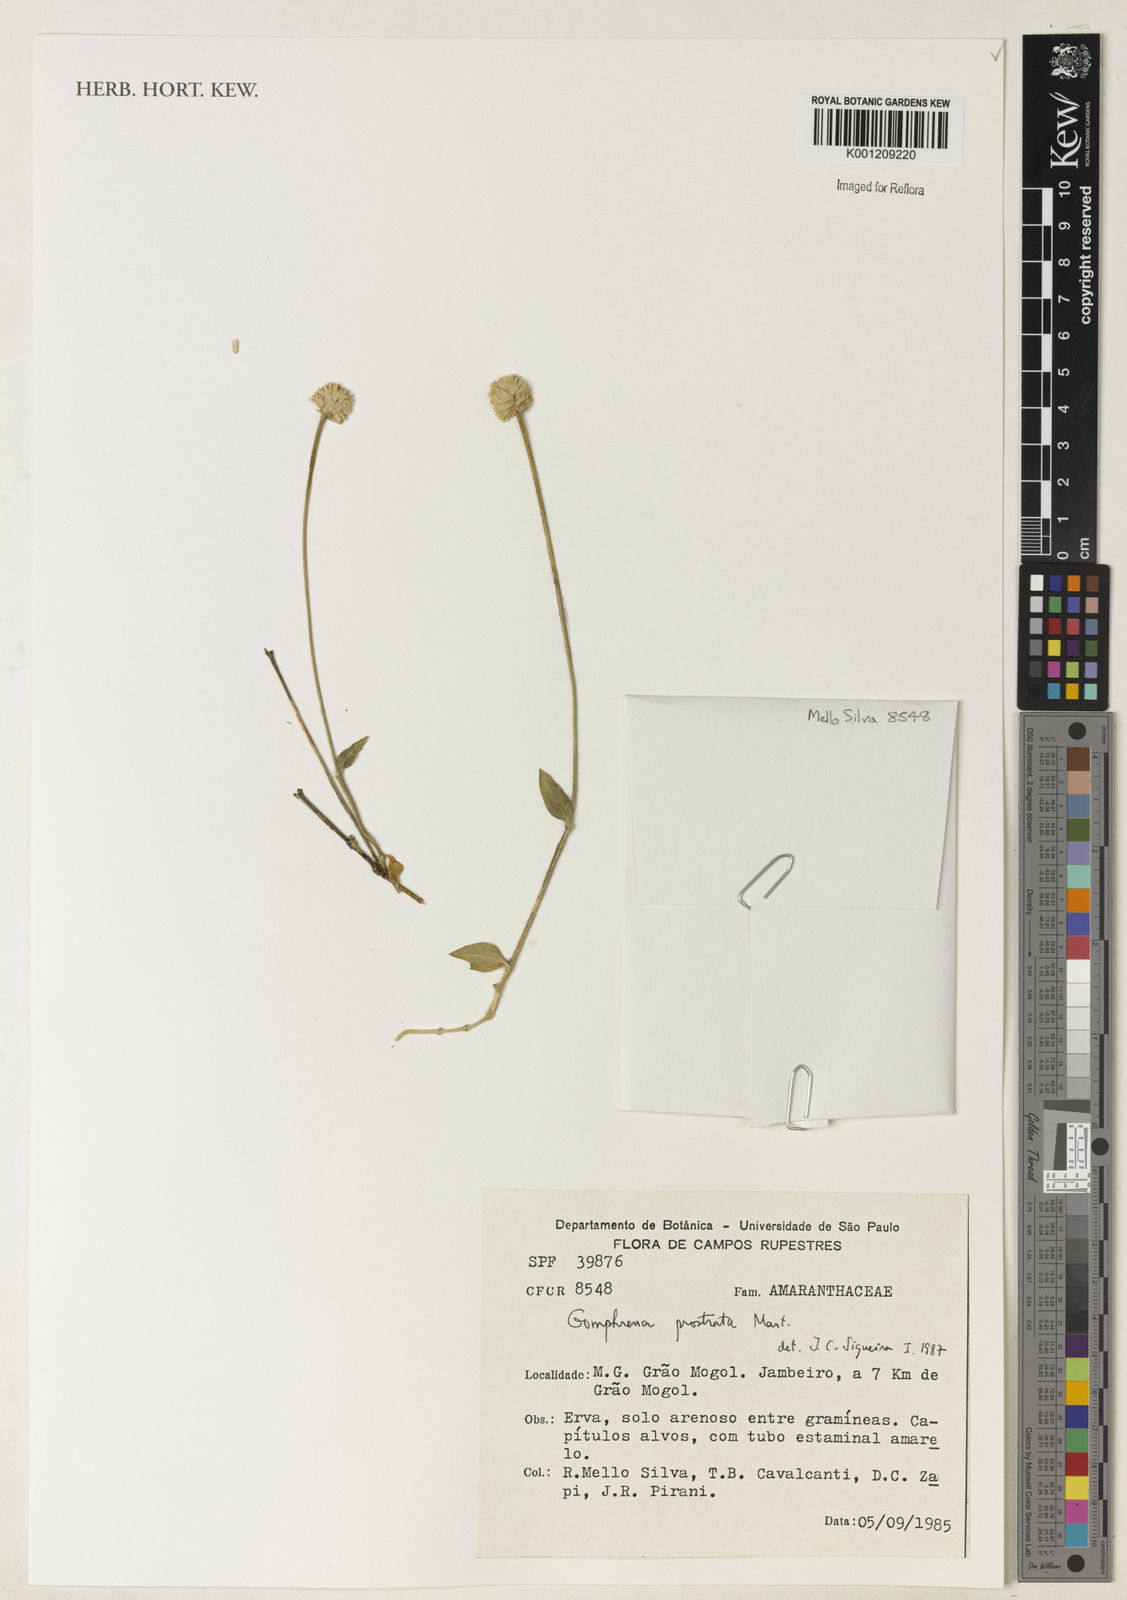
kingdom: Plantae
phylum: Tracheophyta
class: Magnoliopsida
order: Caryophyllales
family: Amaranthaceae
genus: Gomphrena
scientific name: Gomphrena prostrata
